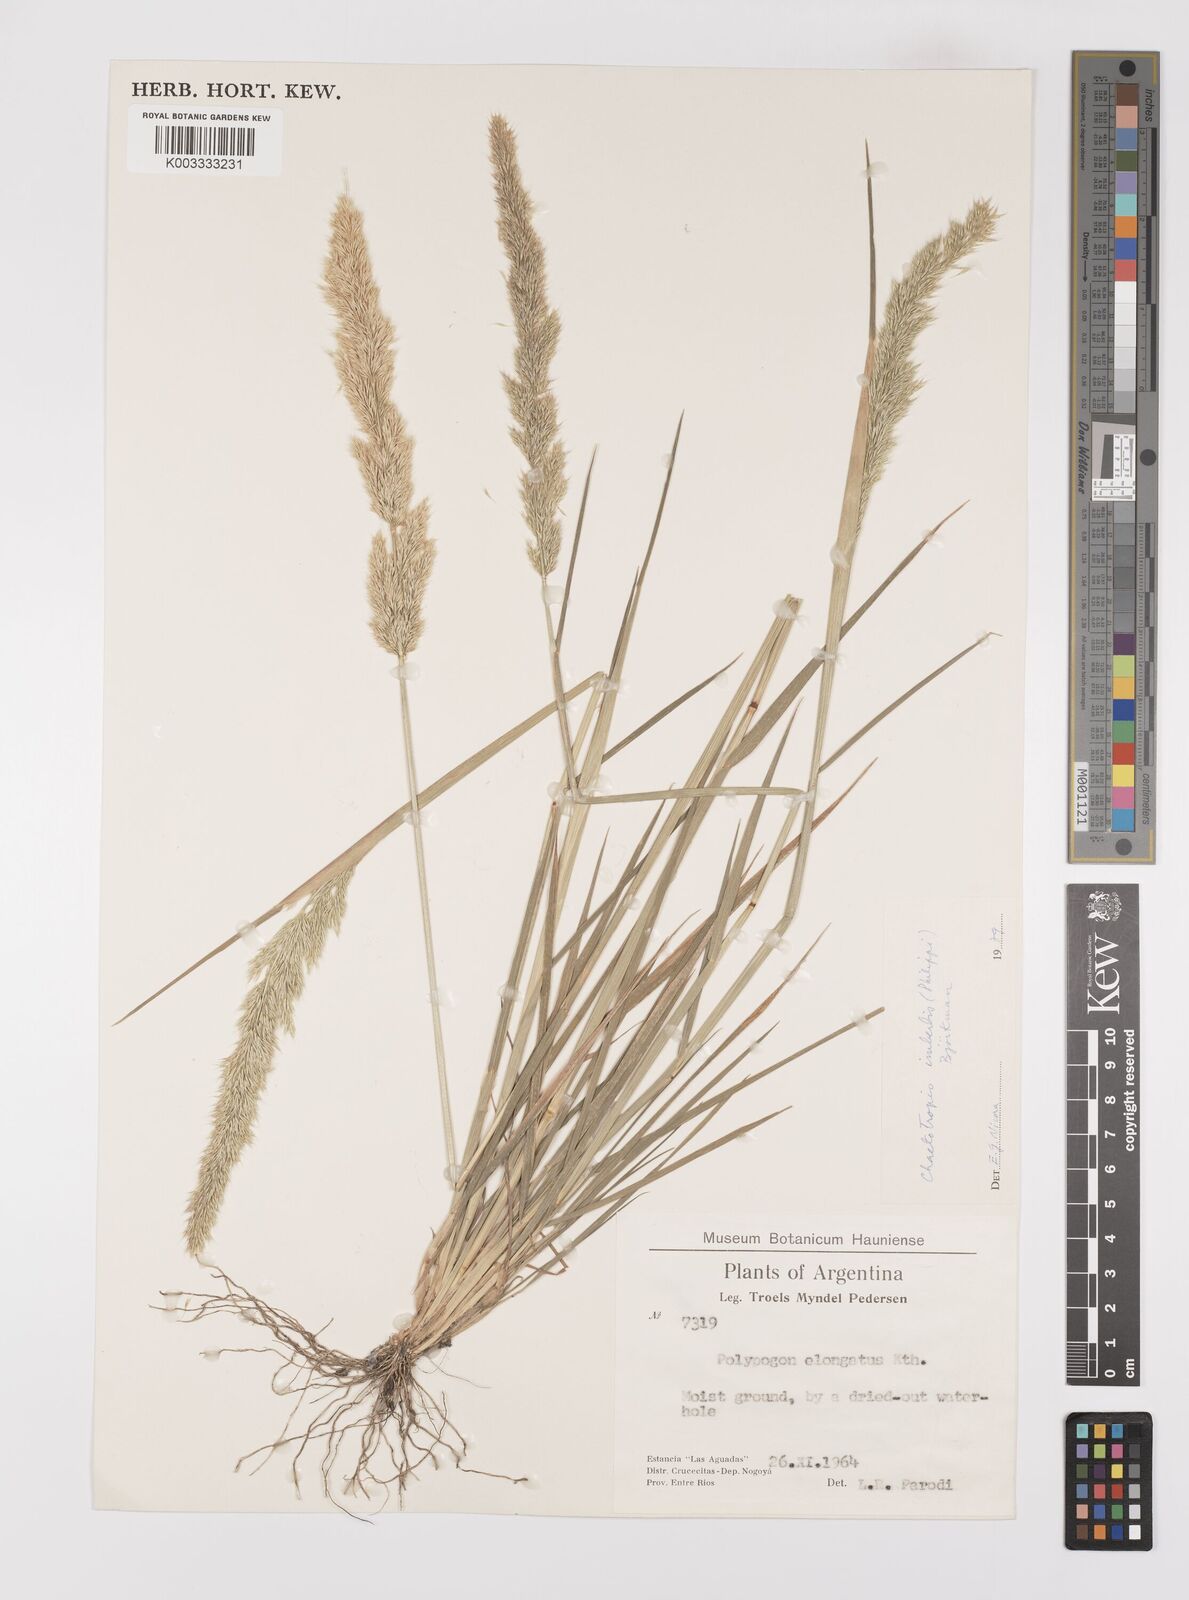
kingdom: Plantae
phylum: Tracheophyta
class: Liliopsida
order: Poales
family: Poaceae
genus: Polypogon
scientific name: Polypogon imberbis
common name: Beardless rabbitsfoot grass
